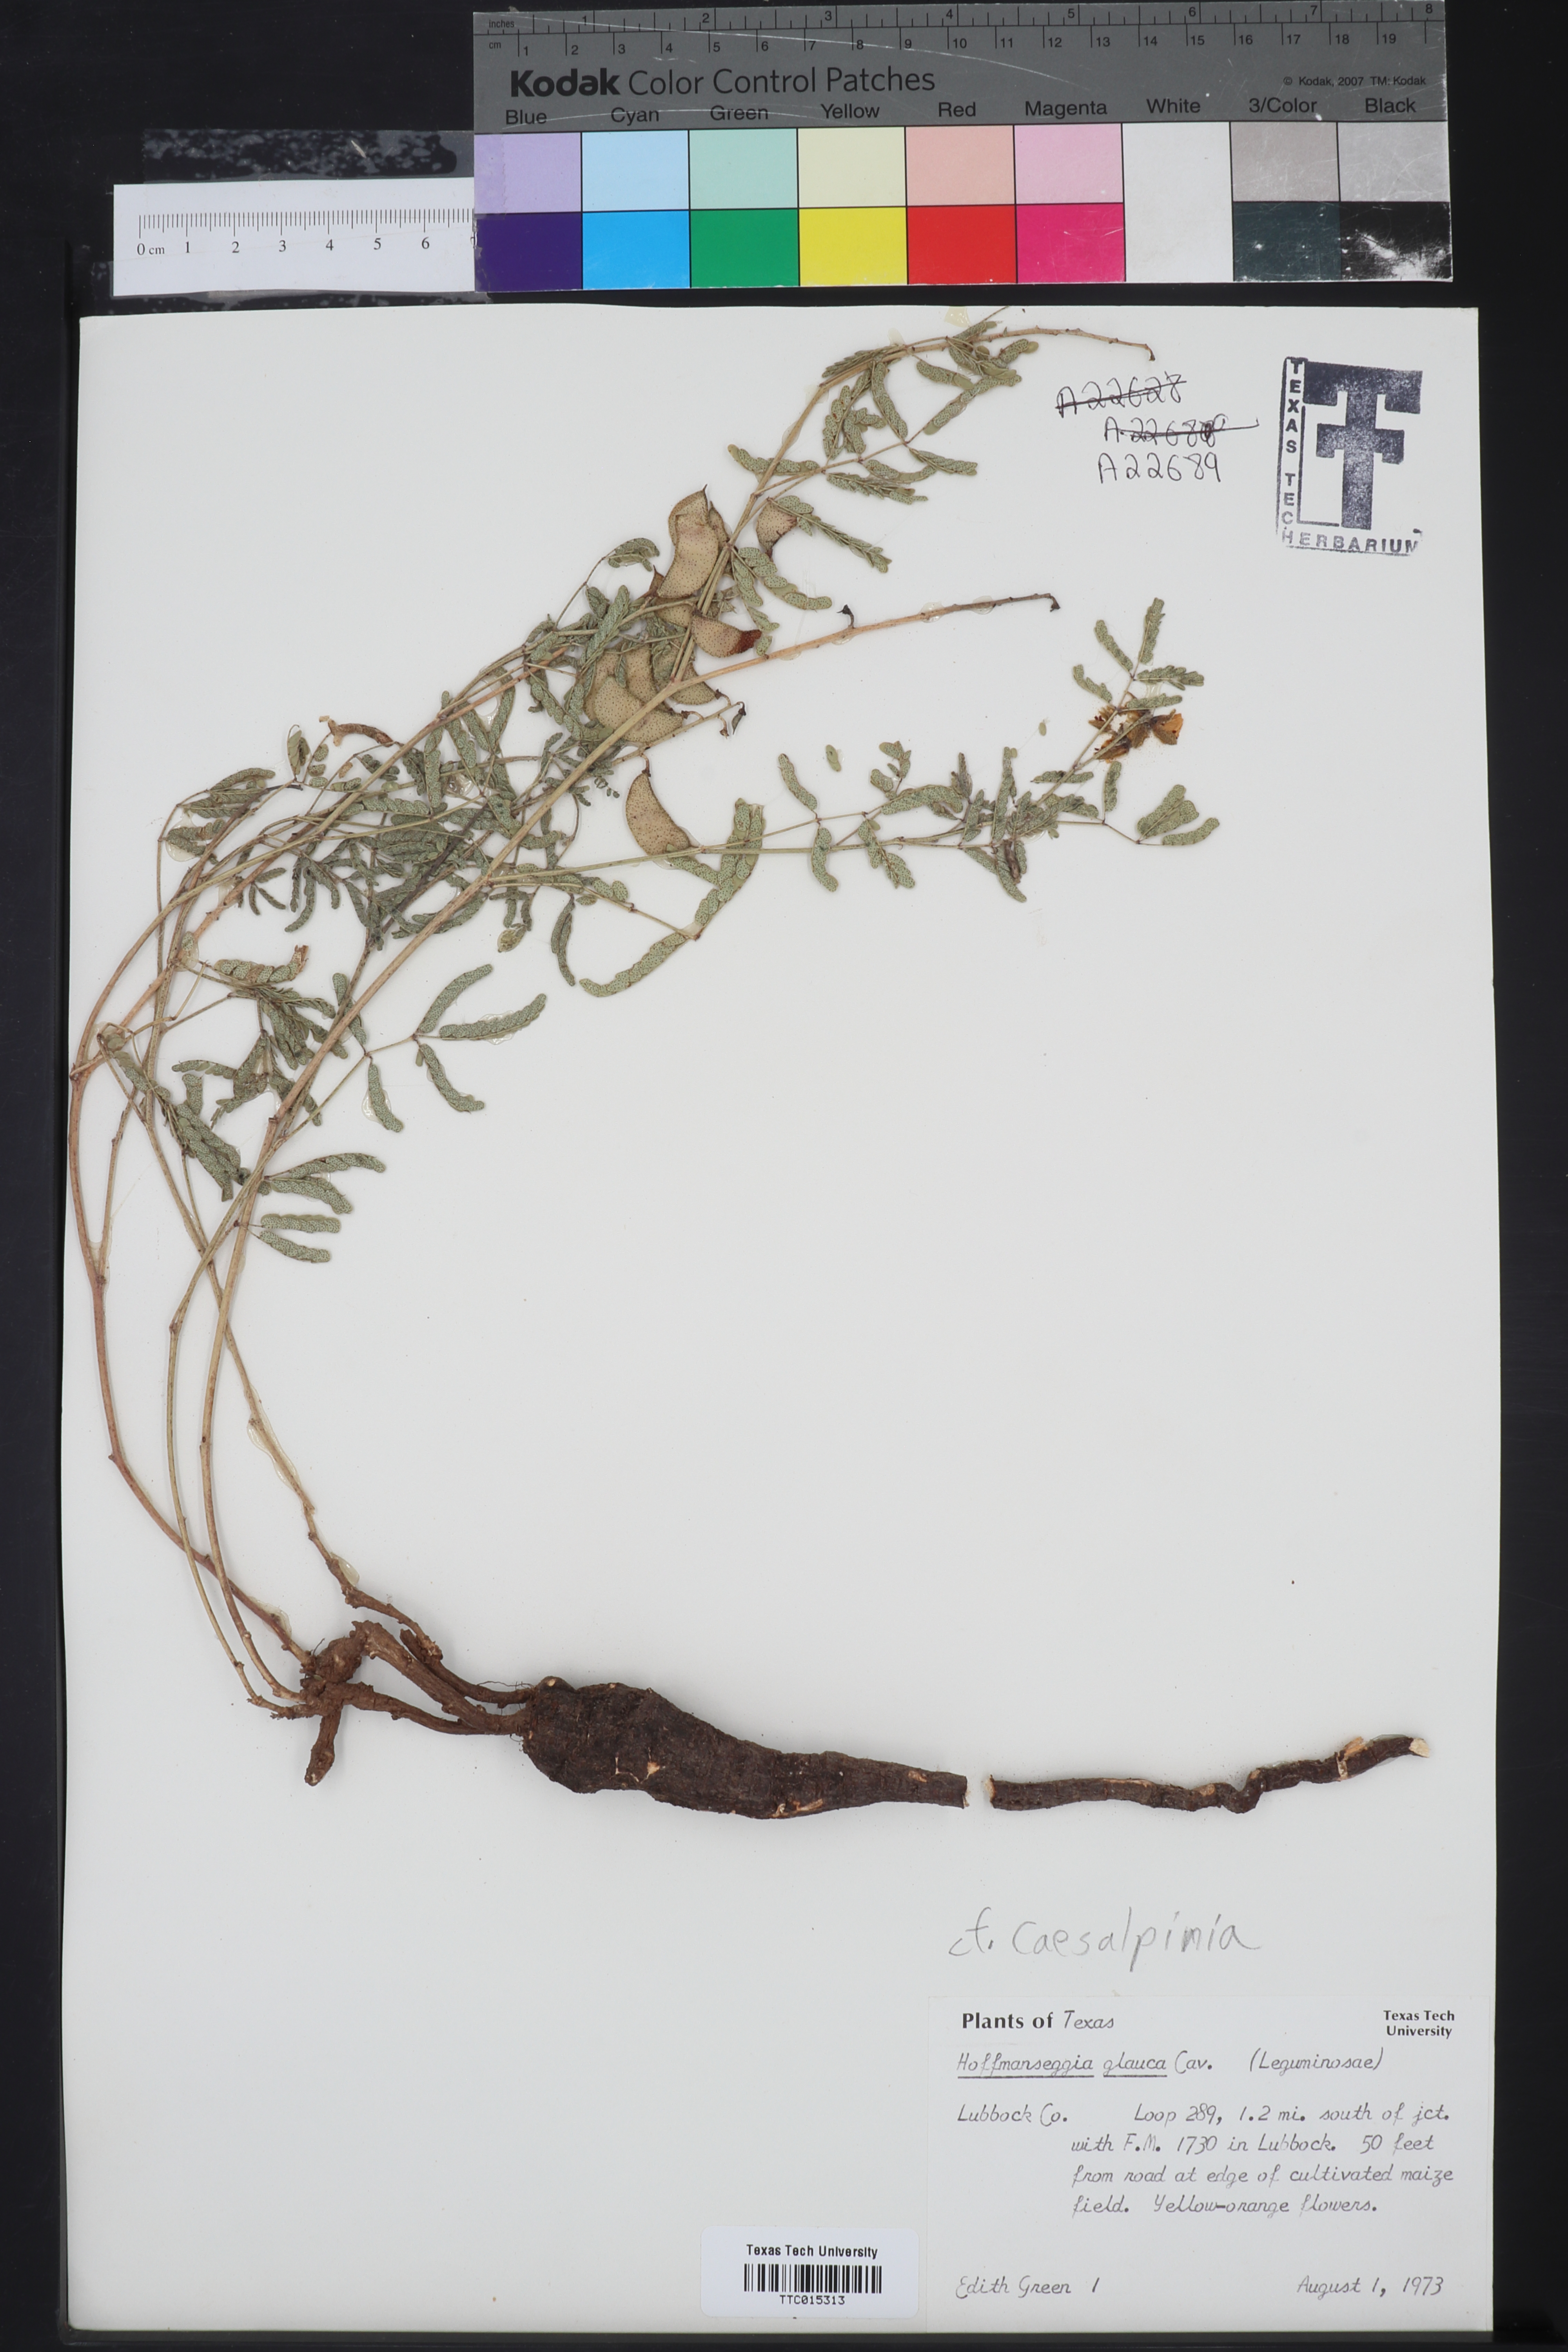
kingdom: Plantae
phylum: Tracheophyta
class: Magnoliopsida
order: Fabales
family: Fabaceae
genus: Hoffmannseggia
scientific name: Hoffmannseggia glauca
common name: Pignut
